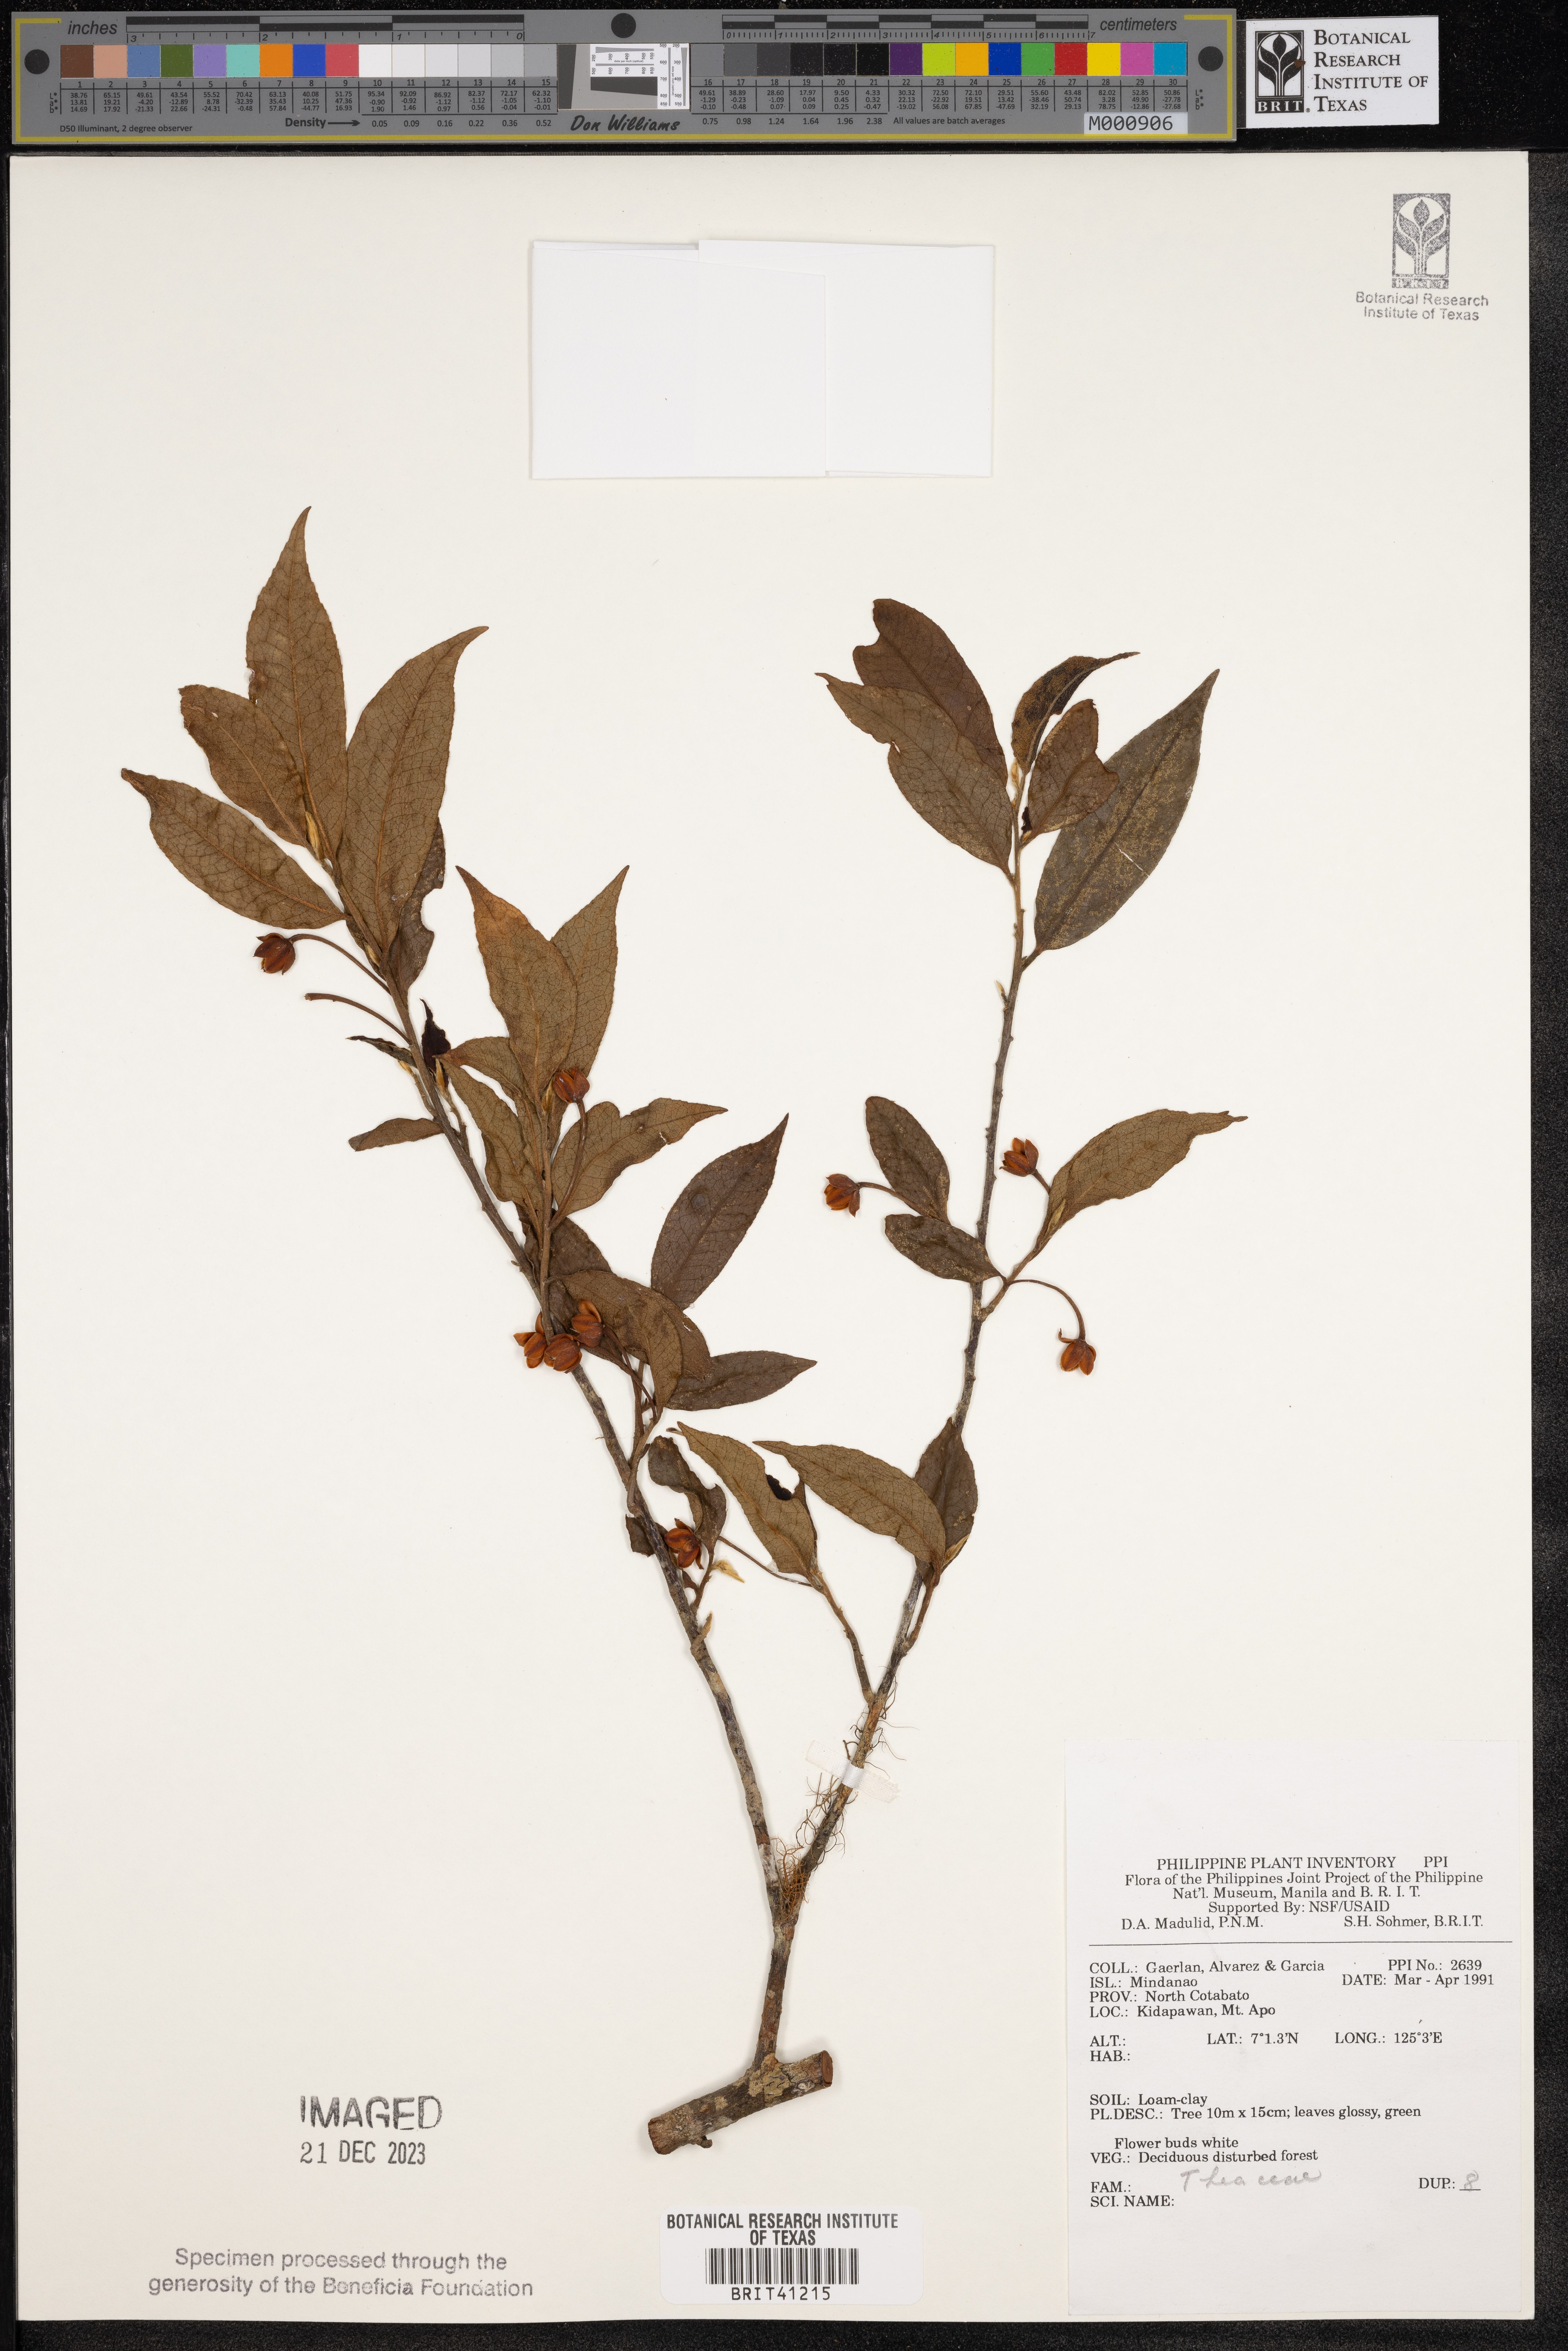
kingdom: Plantae
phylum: Tracheophyta
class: Magnoliopsida
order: Ericales
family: Theaceae
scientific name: Theaceae
